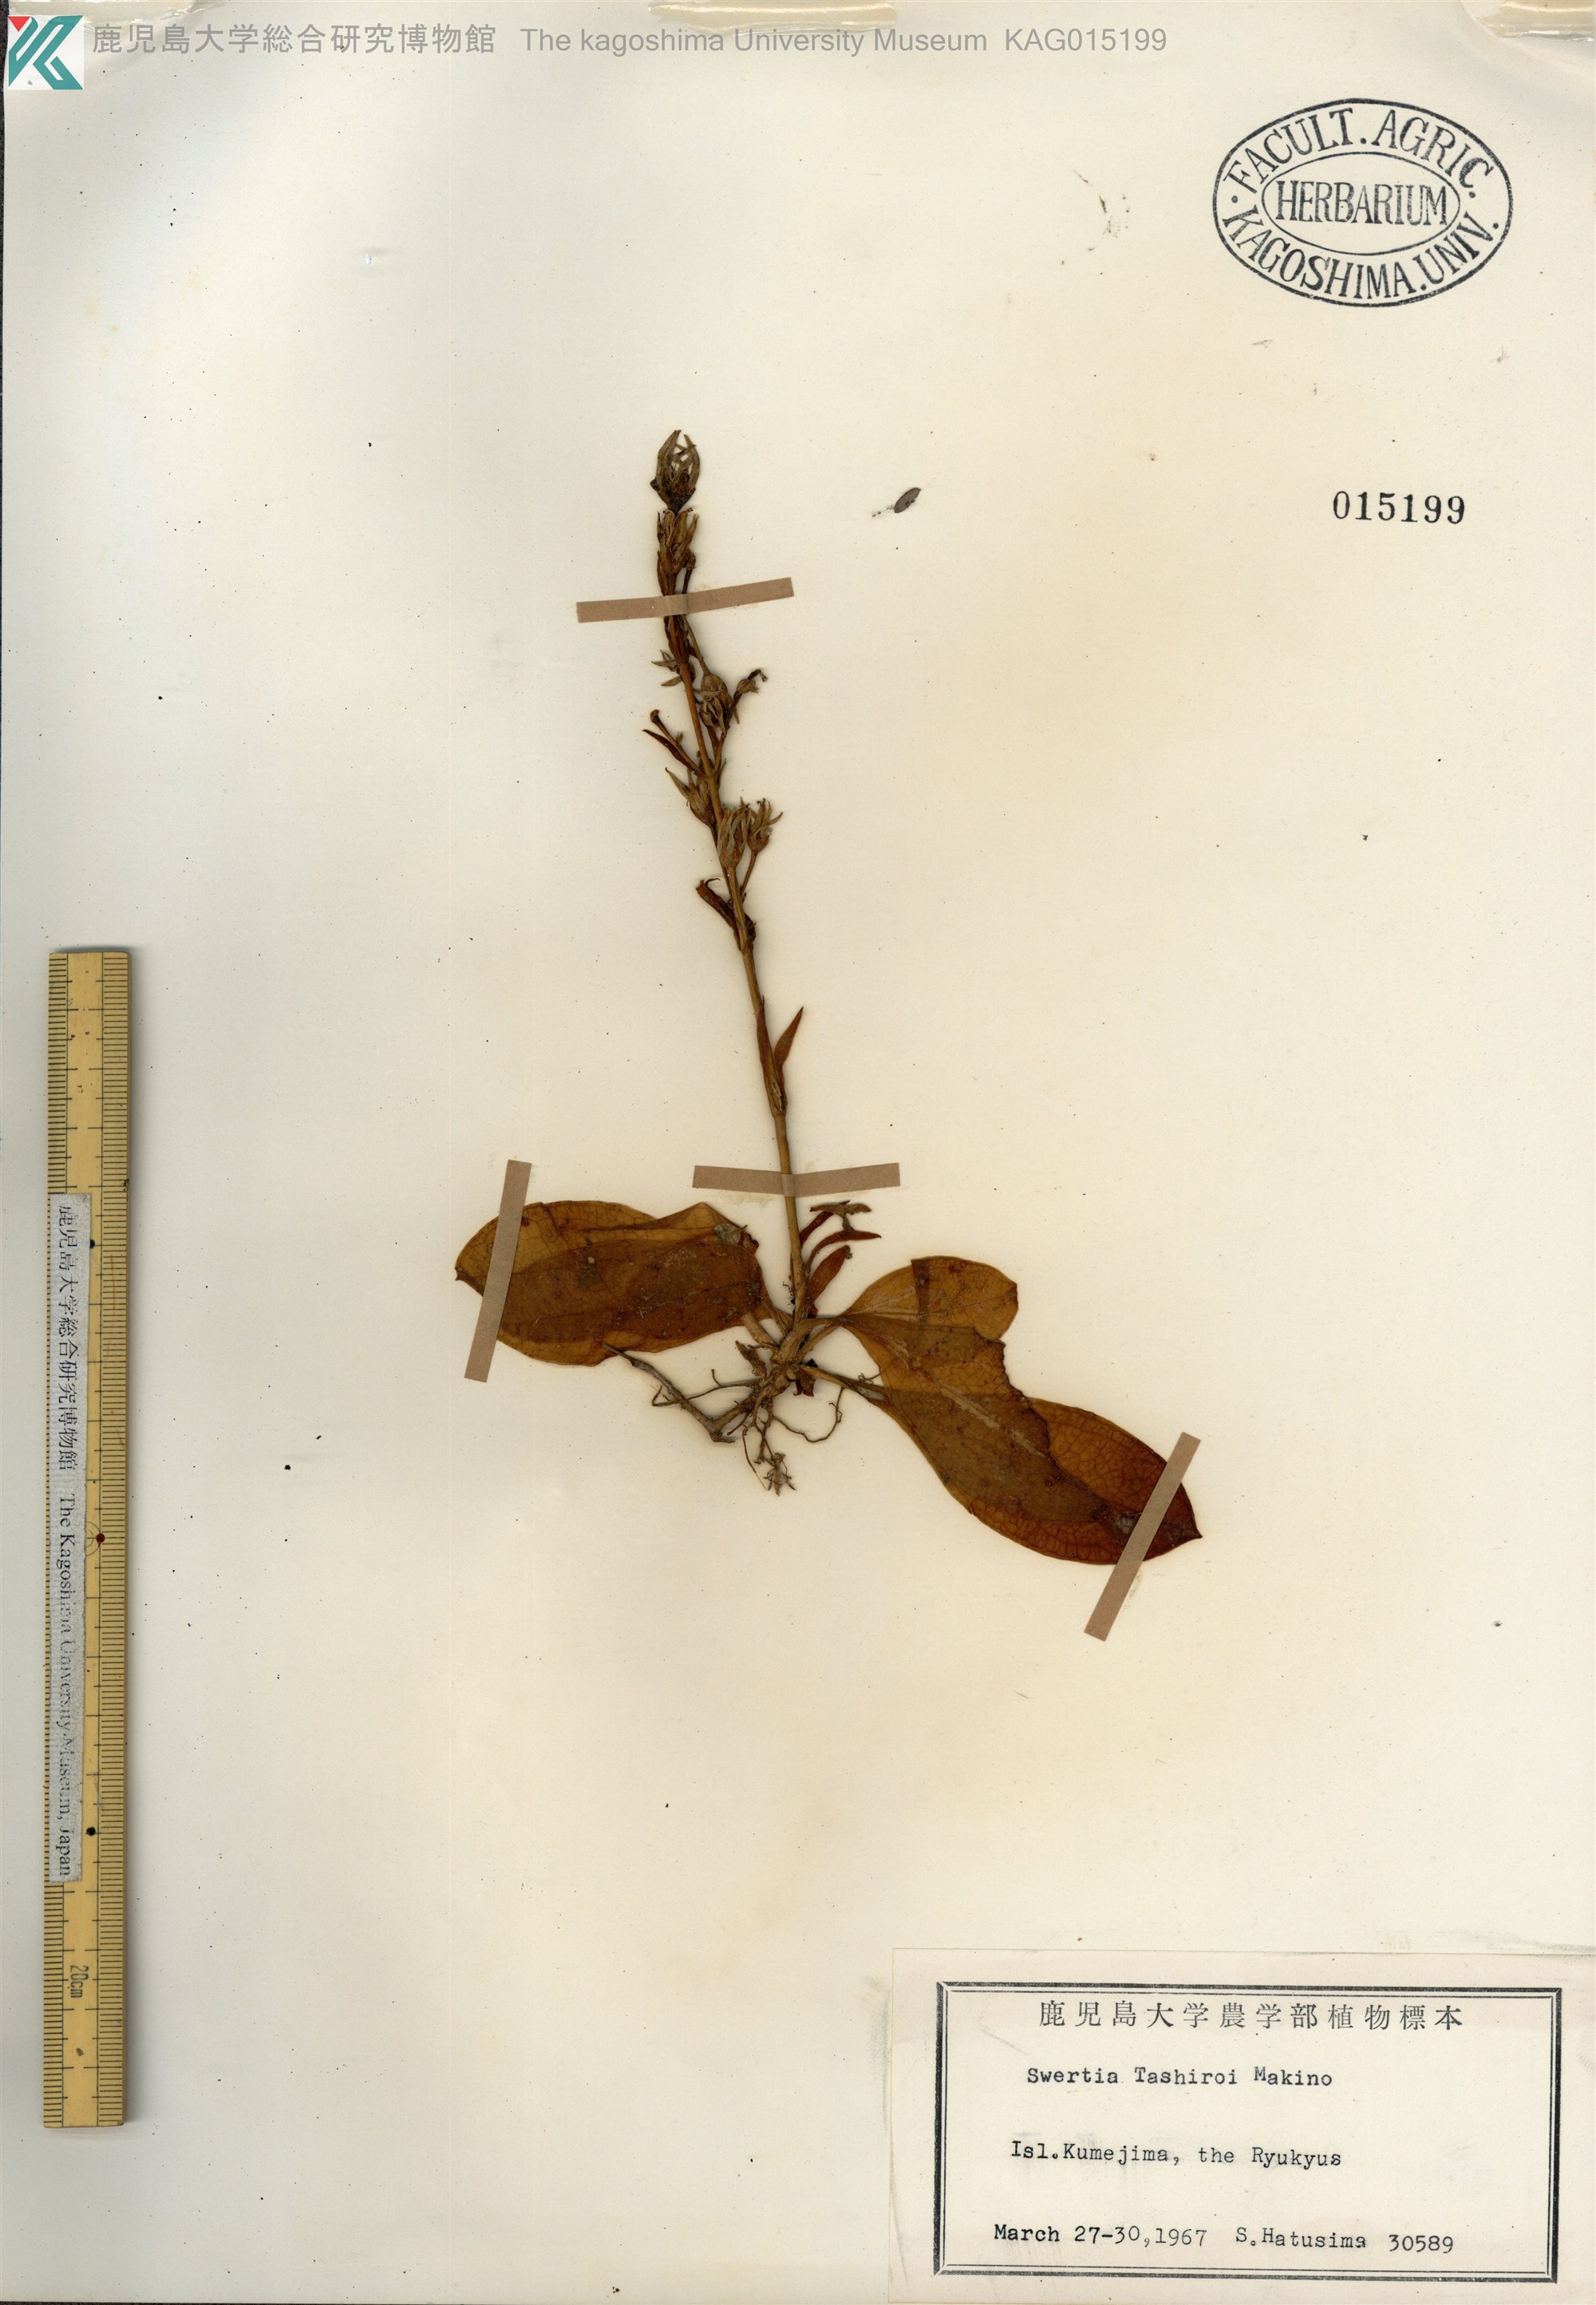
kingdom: Plantae
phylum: Tracheophyta
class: Magnoliopsida
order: Gentianales
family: Gentianaceae
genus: Swertia
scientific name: Swertia tashiroi
